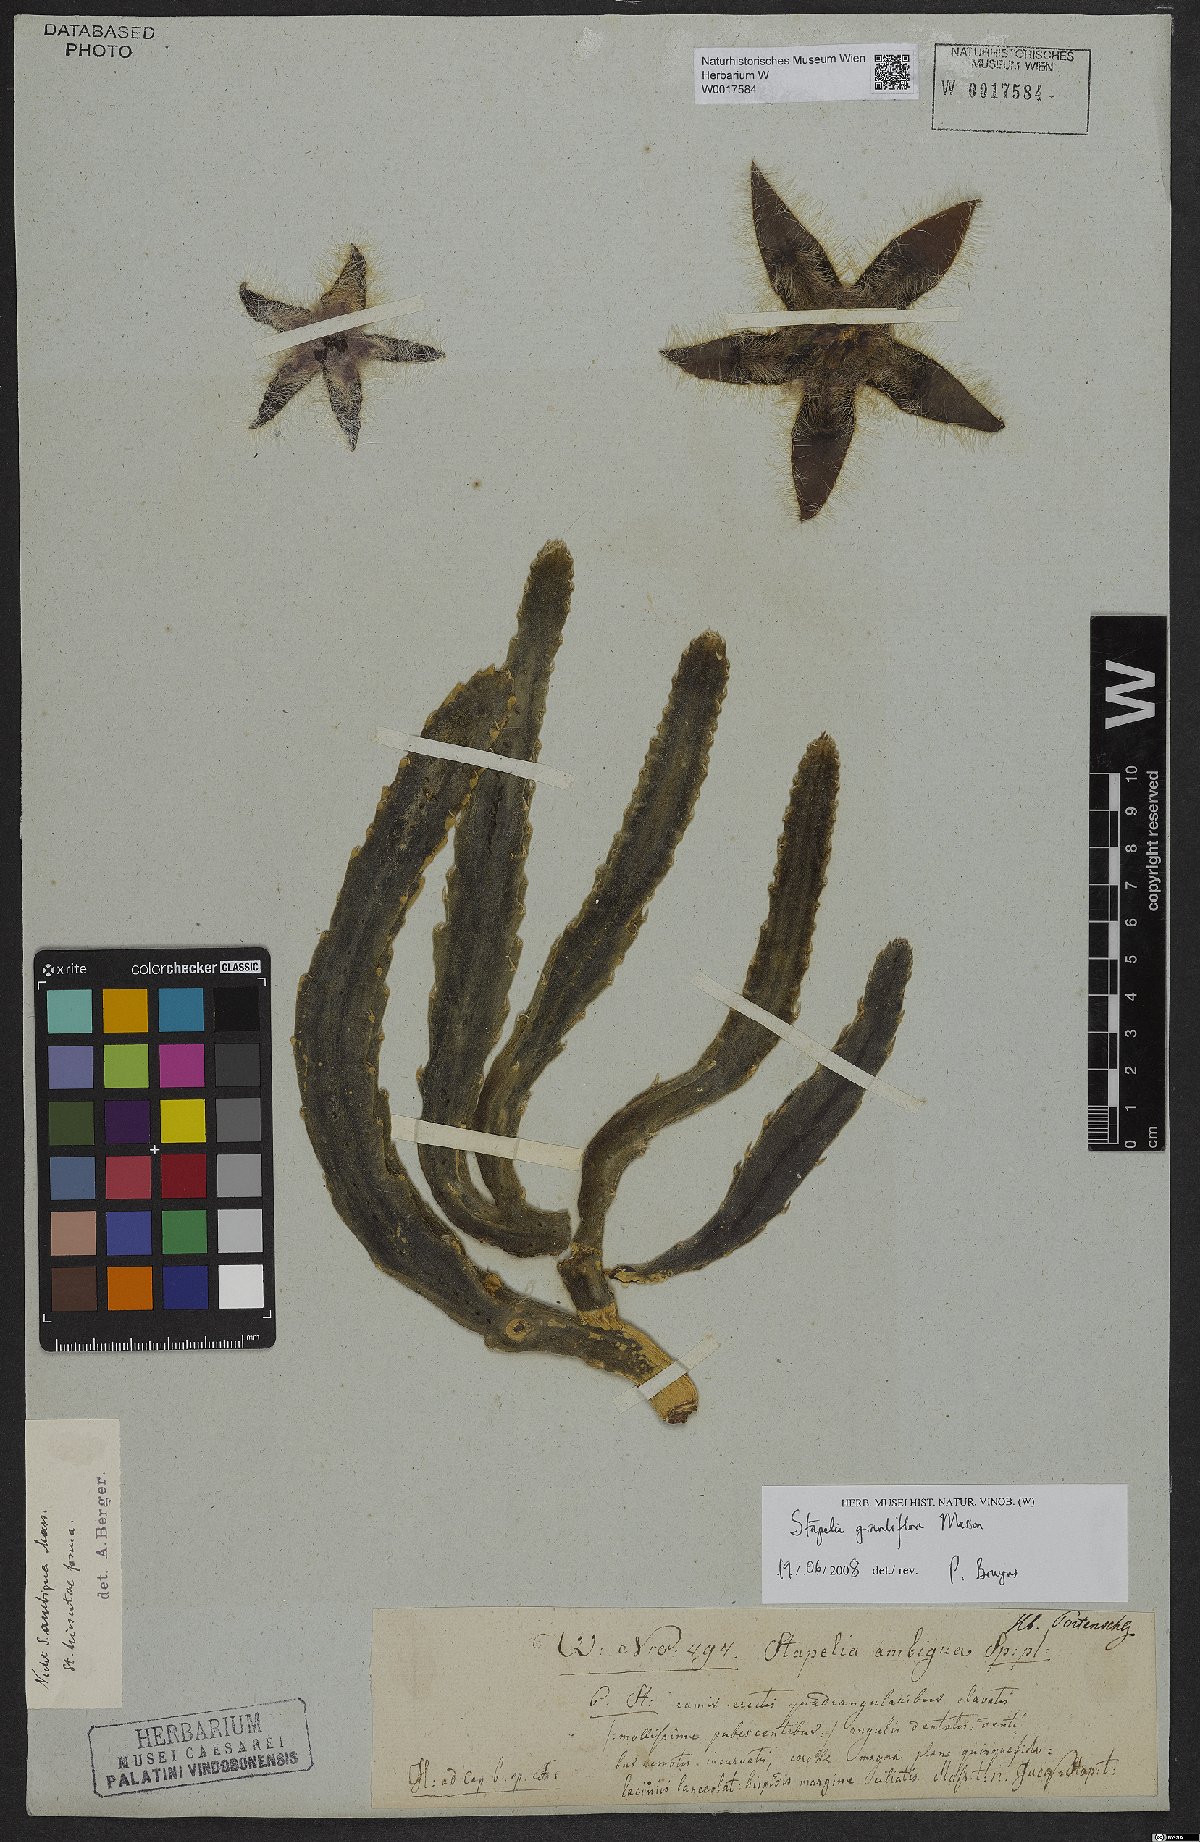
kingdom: Plantae
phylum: Tracheophyta
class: Magnoliopsida
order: Gentianales
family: Apocynaceae
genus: Ceropegia
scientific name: Ceropegia grandiflora
